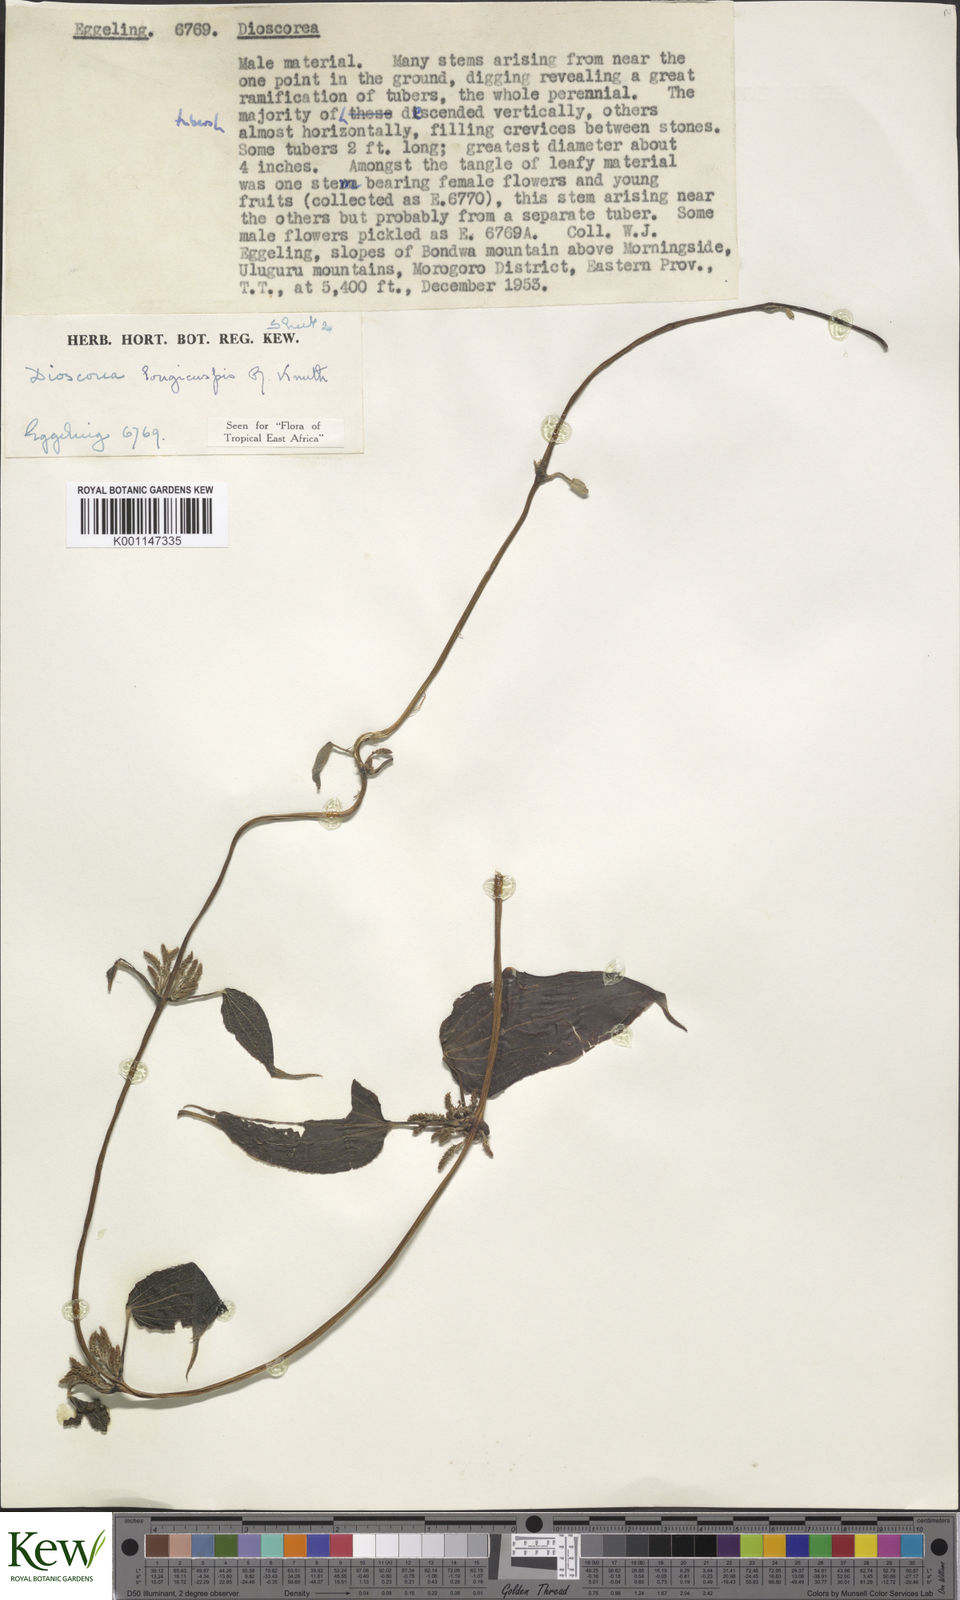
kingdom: Plantae
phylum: Tracheophyta
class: Liliopsida
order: Dioscoreales
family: Dioscoreaceae
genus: Dioscorea
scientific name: Dioscorea longicuspis
